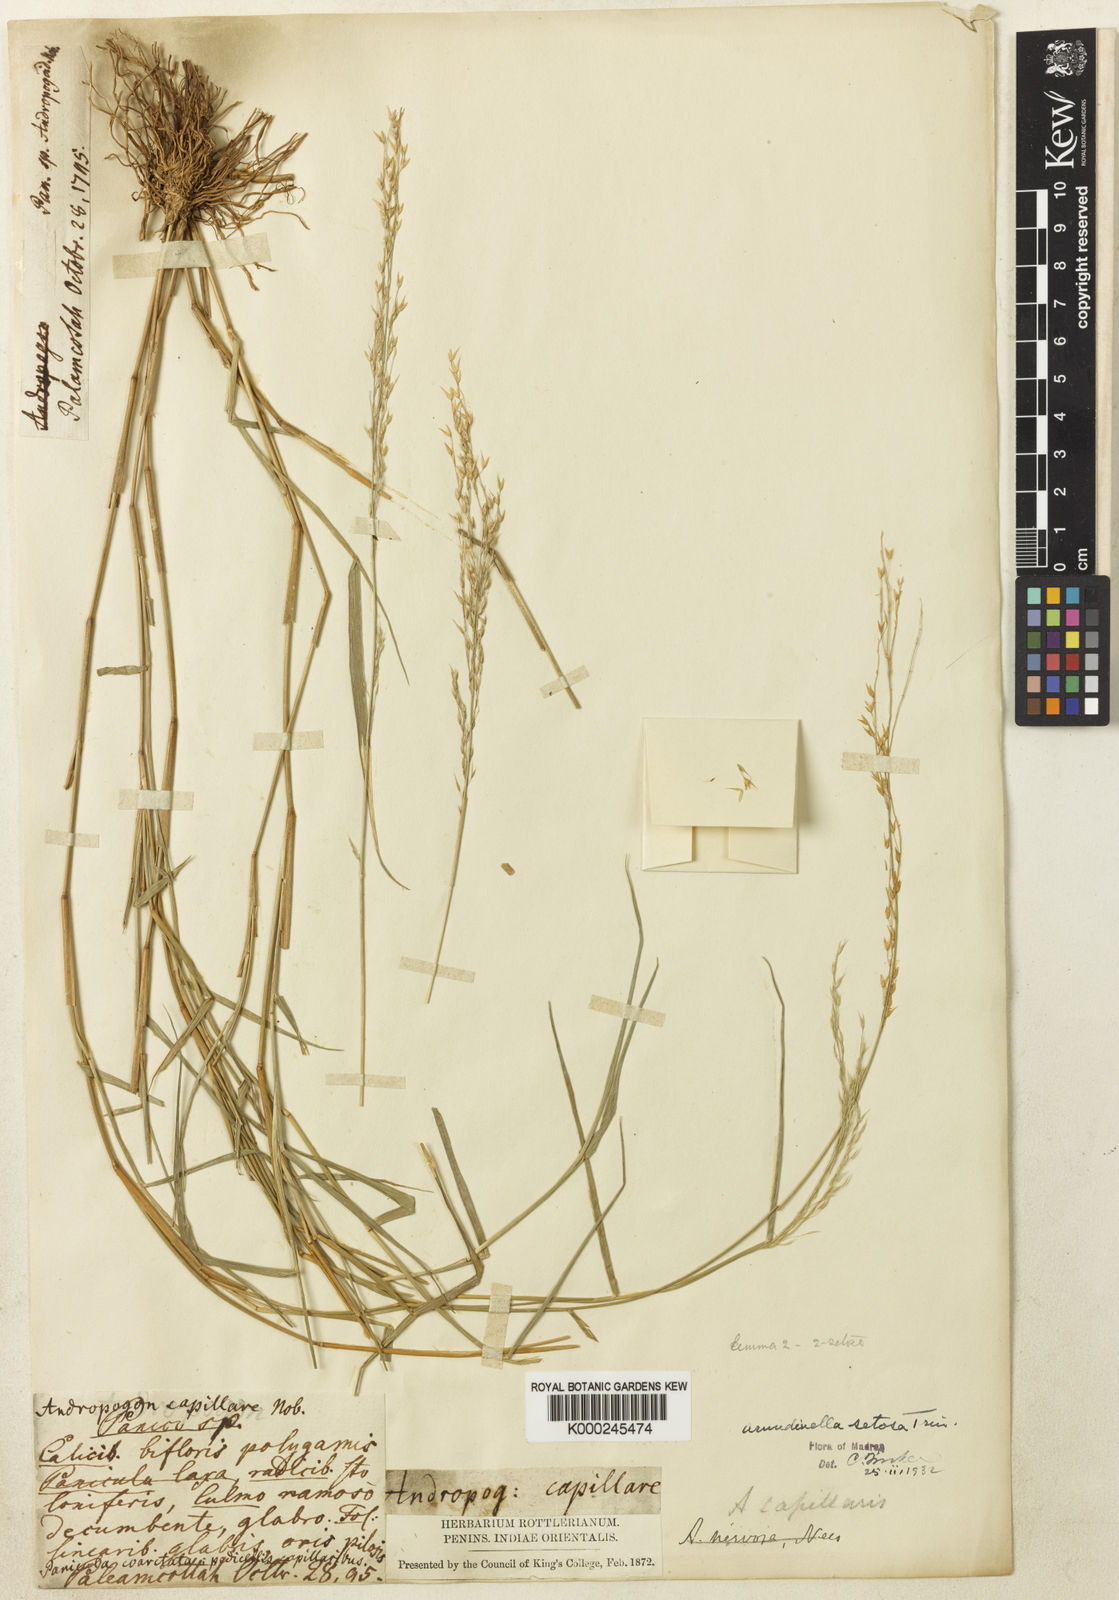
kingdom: Plantae
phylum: Tracheophyta
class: Liliopsida
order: Poales
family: Poaceae
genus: Arundinella
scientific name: Arundinella setosa
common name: Reed grass
